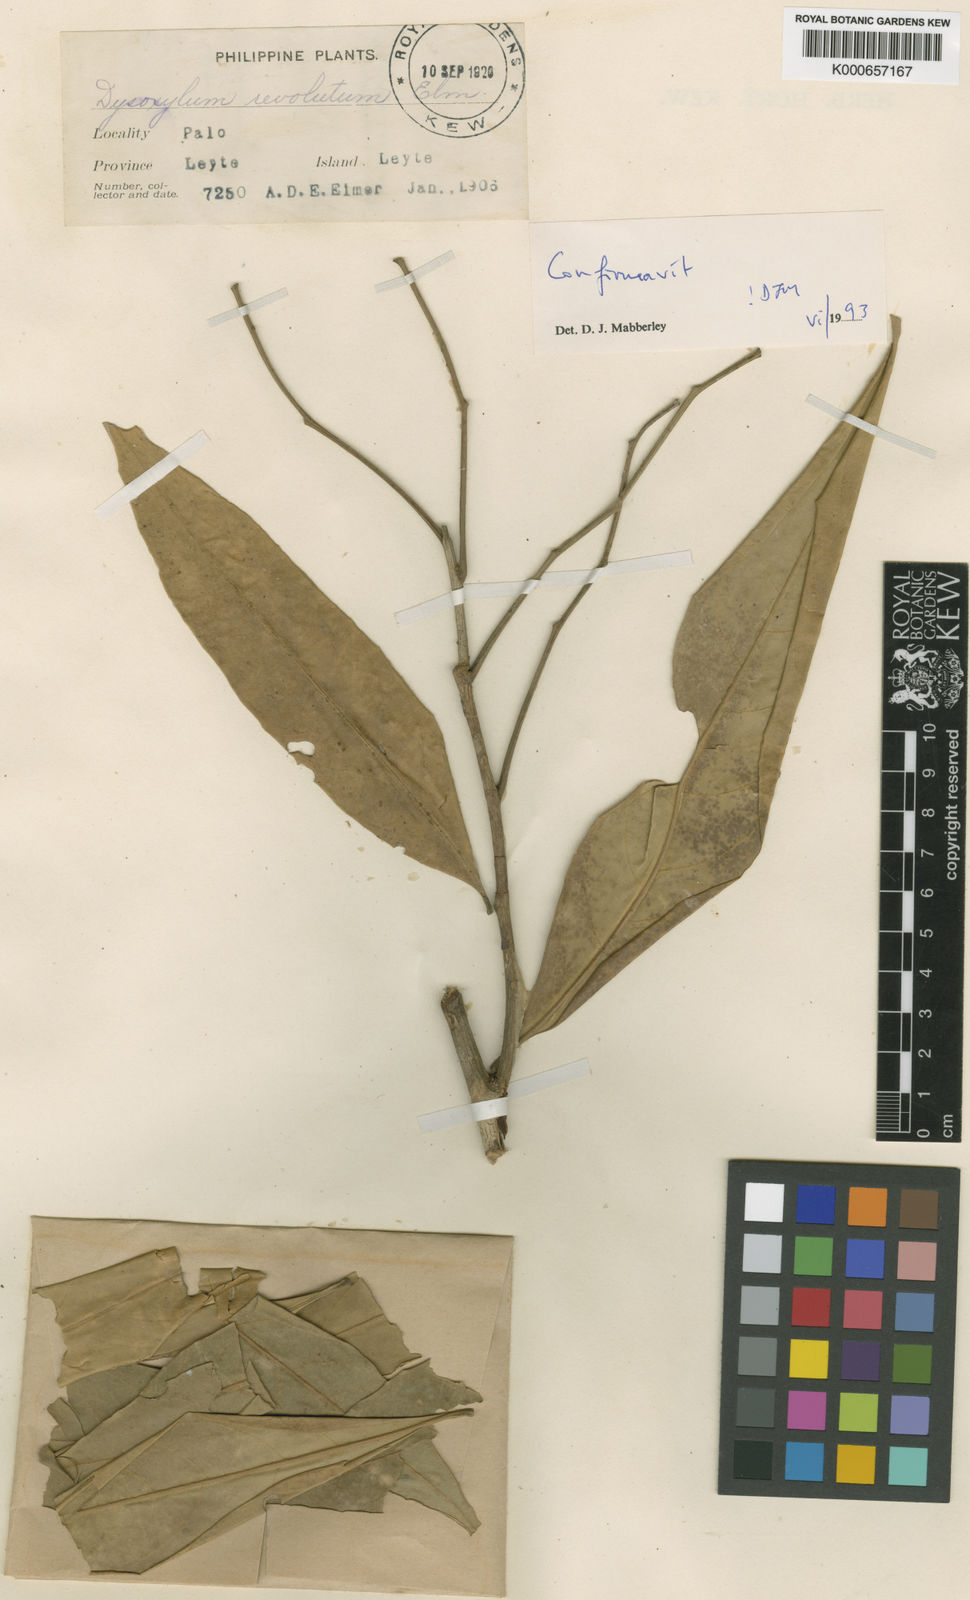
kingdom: Plantae
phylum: Tracheophyta
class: Magnoliopsida
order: Sapindales
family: Meliaceae
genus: Dysoxylum
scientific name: Dysoxylum cyrtobotryum
